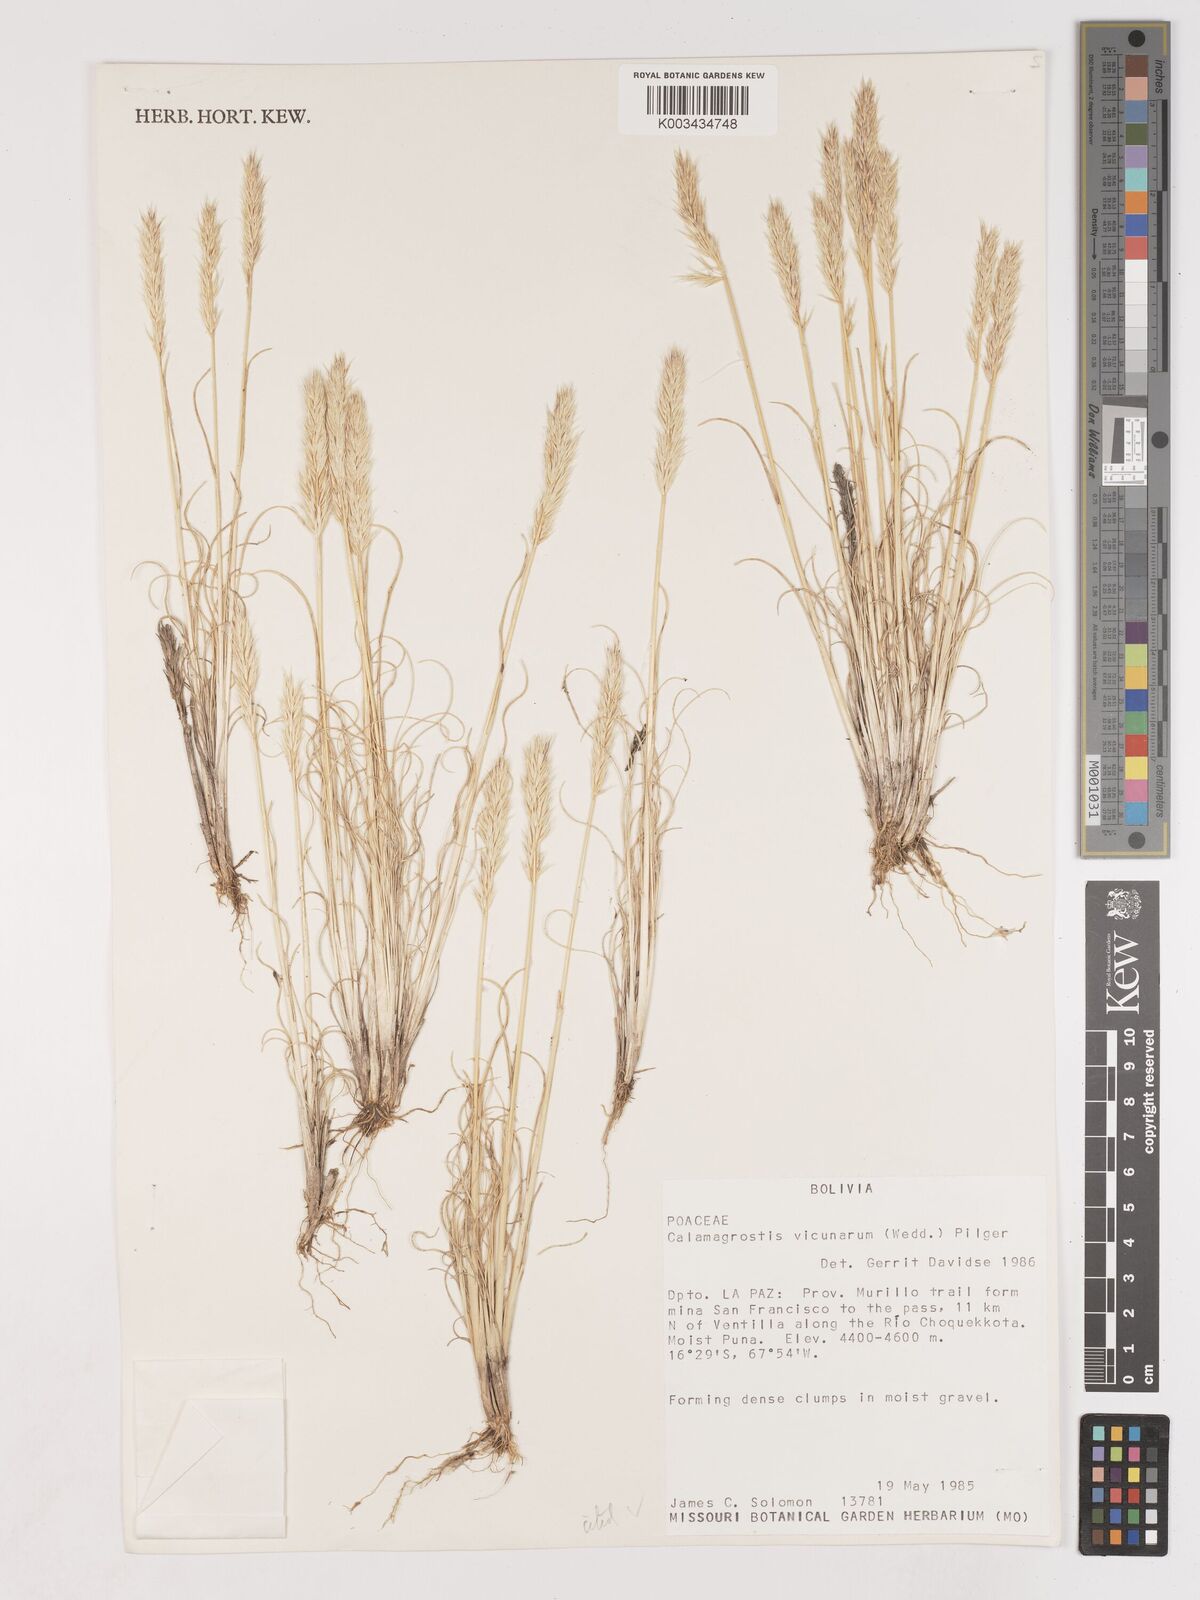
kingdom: Plantae
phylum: Tracheophyta
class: Liliopsida
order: Poales
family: Poaceae
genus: Cinnagrostis
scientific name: Cinnagrostis vicunarum
